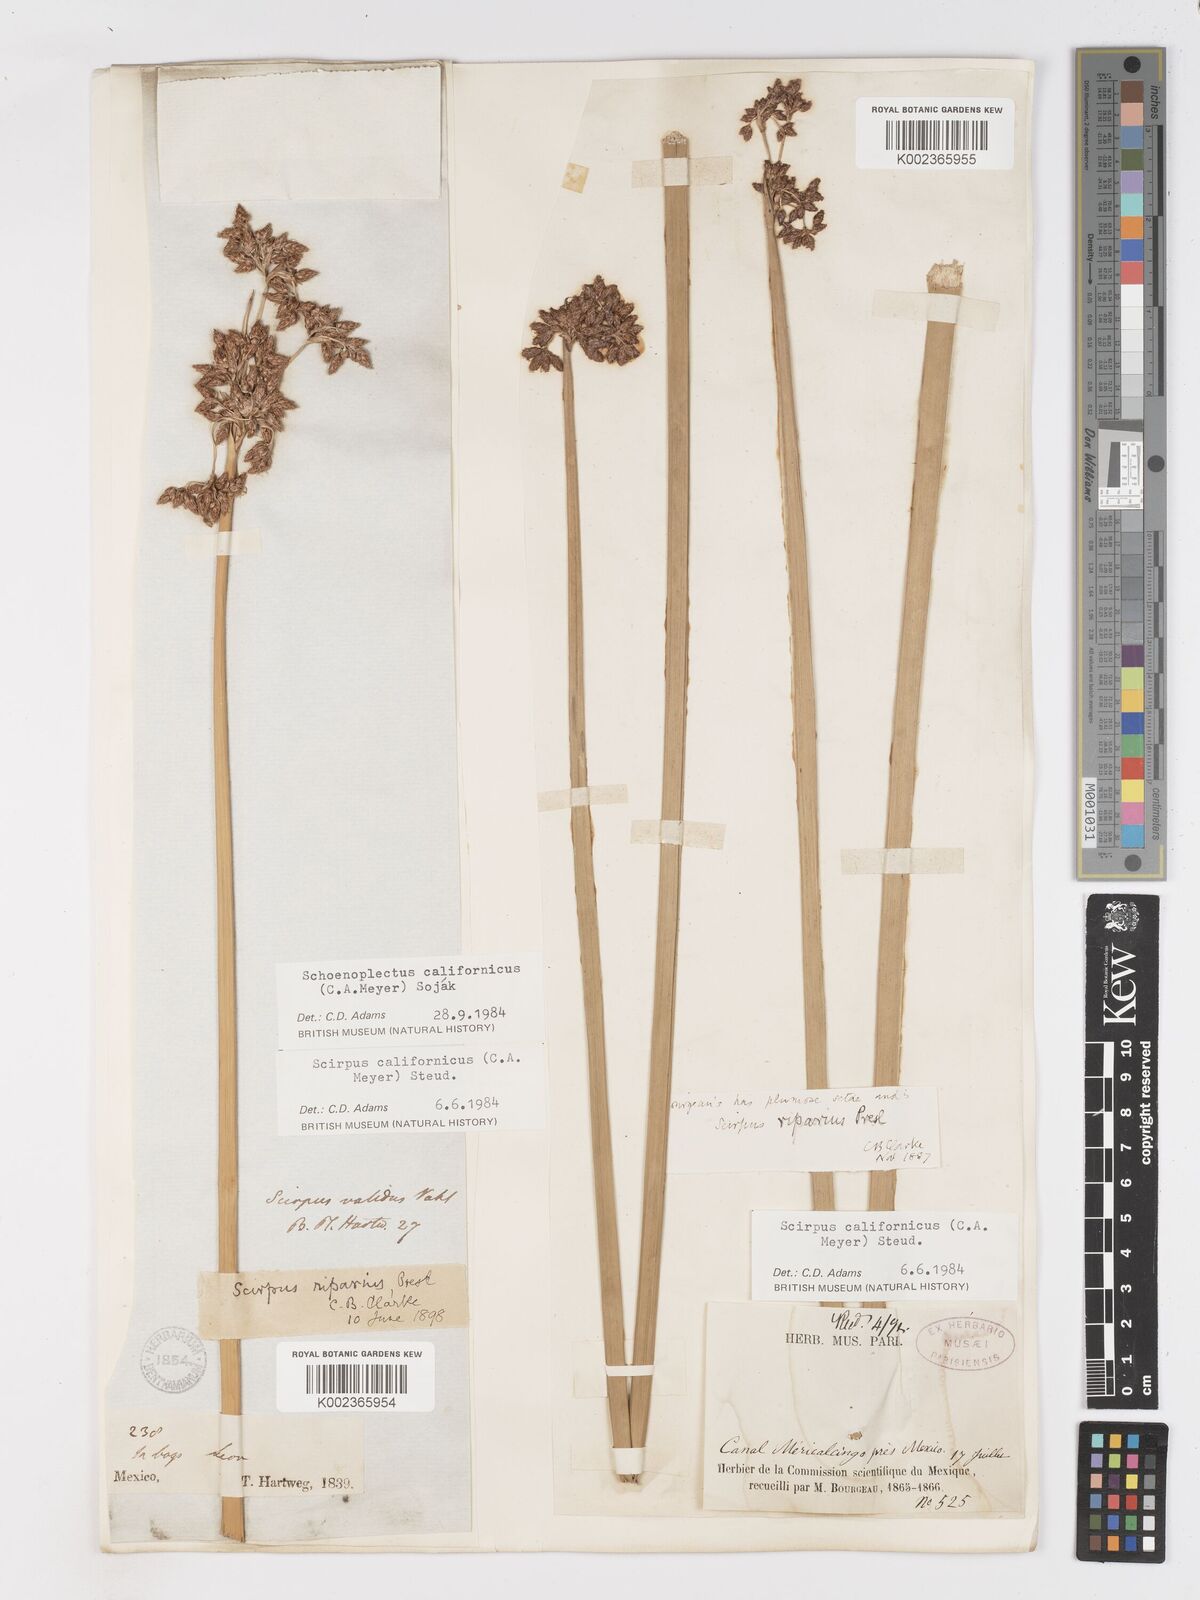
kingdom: Plantae
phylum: Tracheophyta
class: Liliopsida
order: Poales
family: Cyperaceae
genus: Schoenoplectus
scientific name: Schoenoplectus californicus
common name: California bulrush
